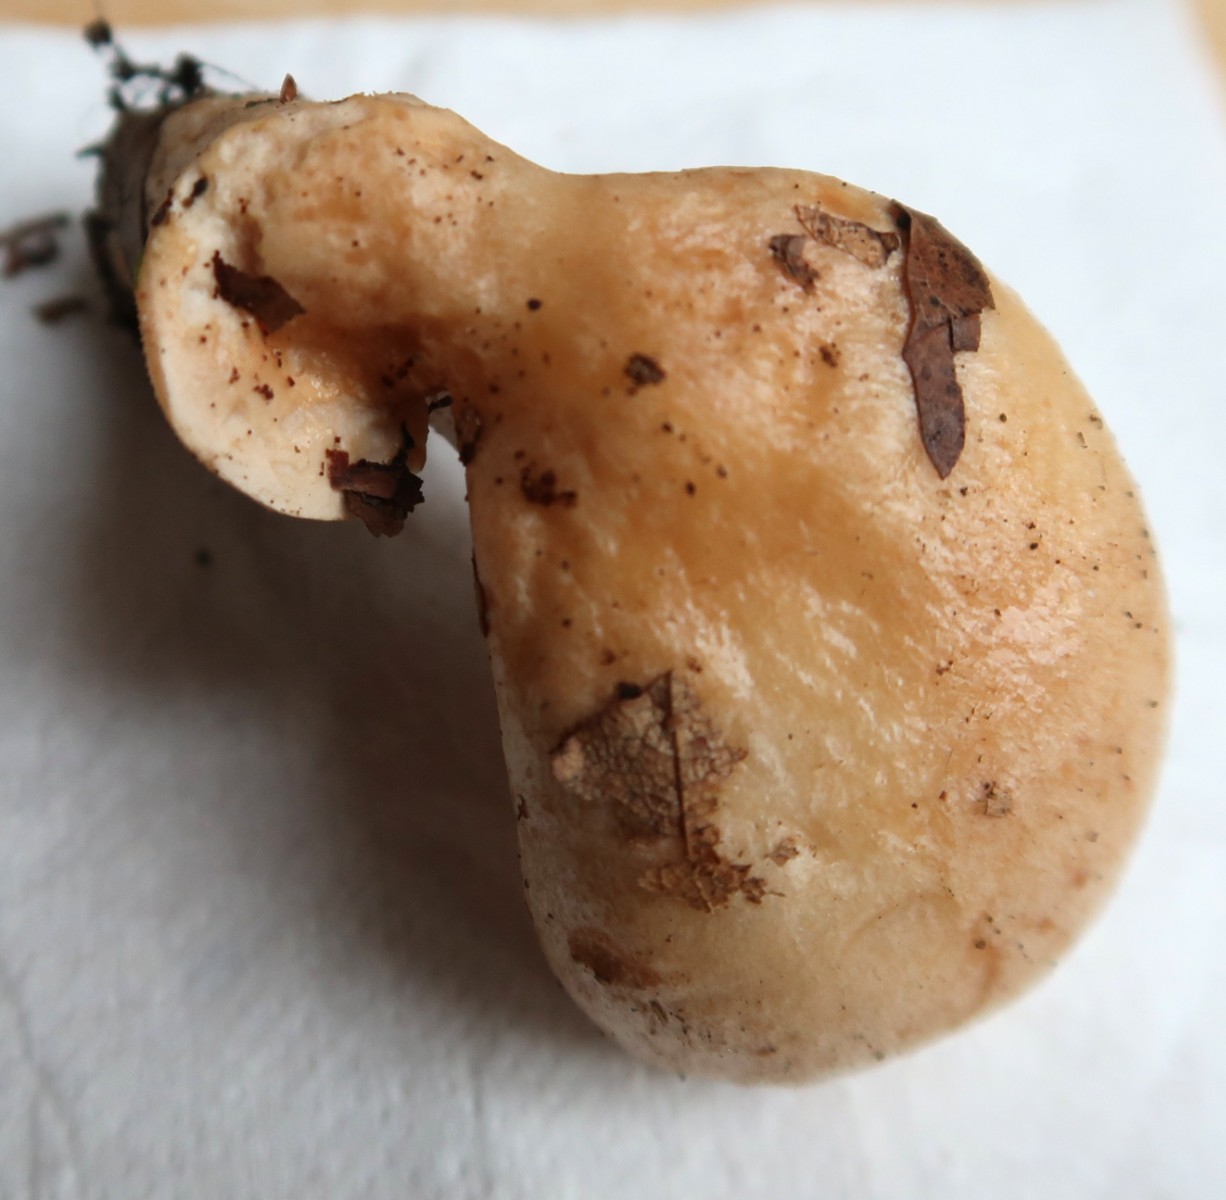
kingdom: Fungi
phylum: Basidiomycota
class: Agaricomycetes
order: Russulales
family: Russulaceae
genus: Lactarius
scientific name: Lactarius pallidus
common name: bleg mælkehat
